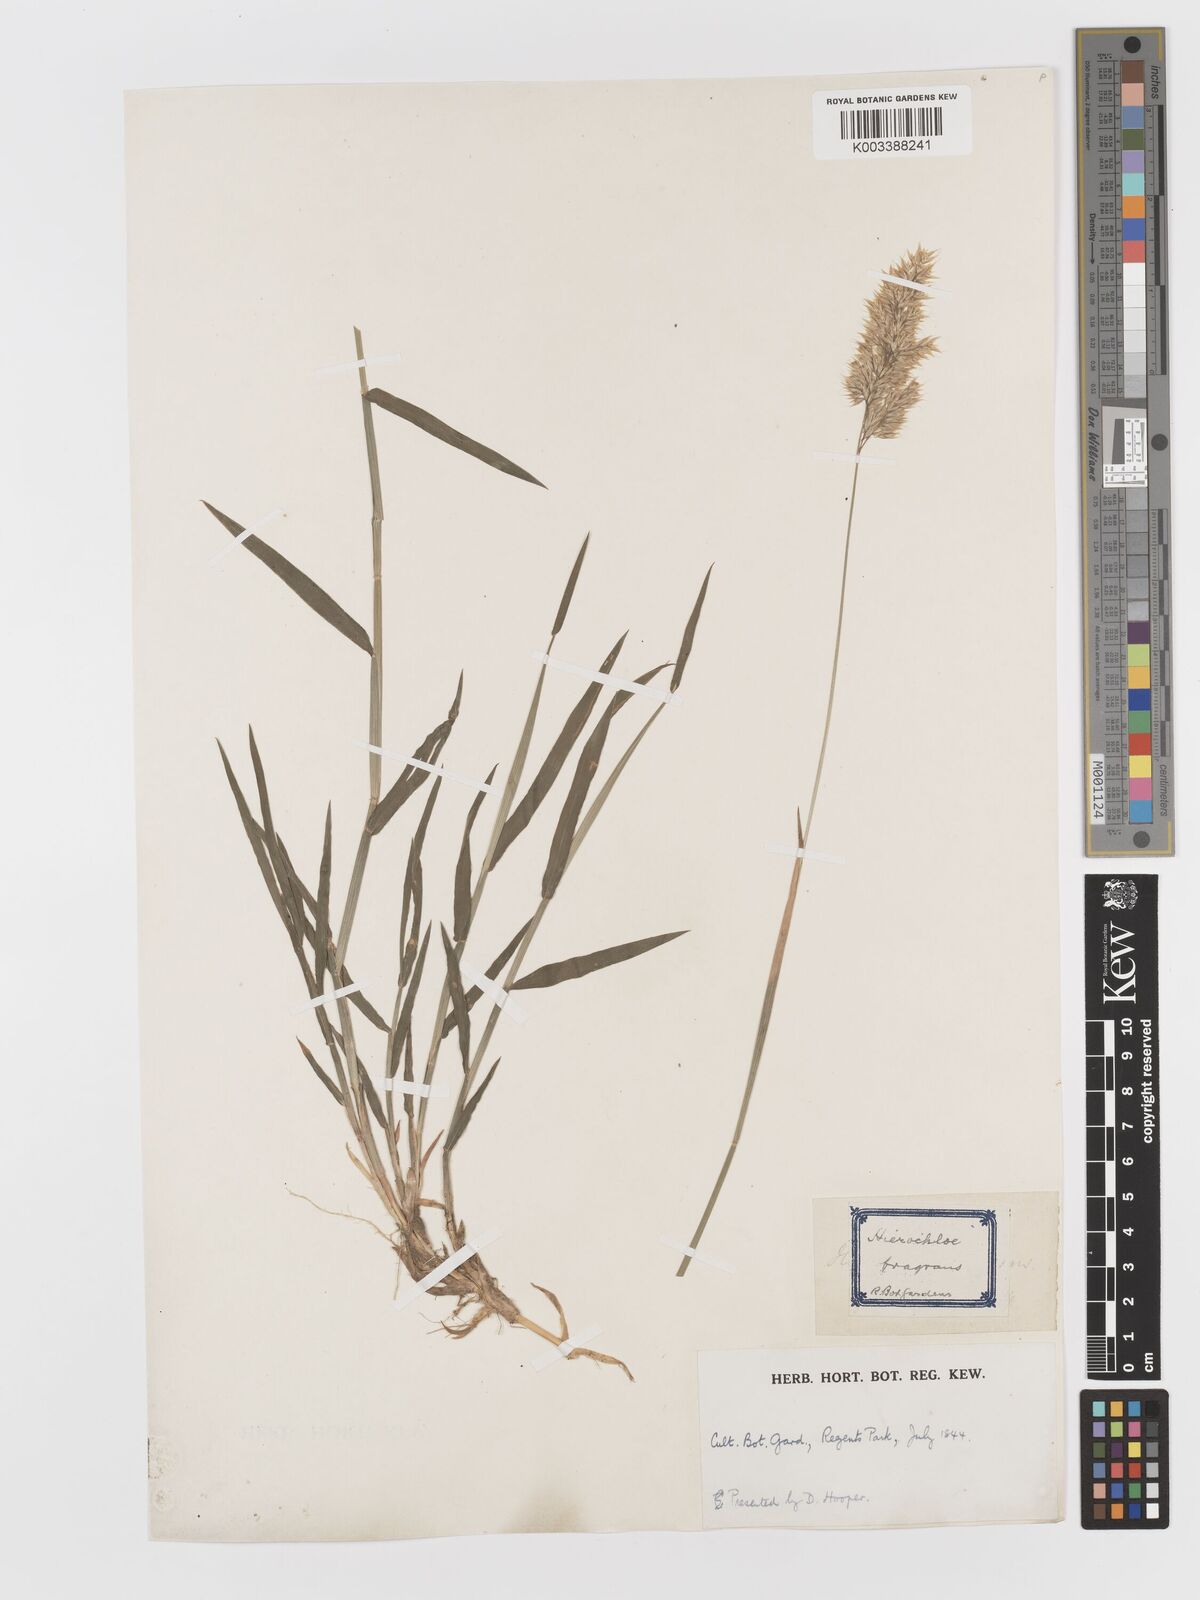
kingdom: Plantae
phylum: Tracheophyta
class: Liliopsida
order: Poales
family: Poaceae
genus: Holcus
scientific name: Holcus mollis
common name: Creeping velvetgrass
